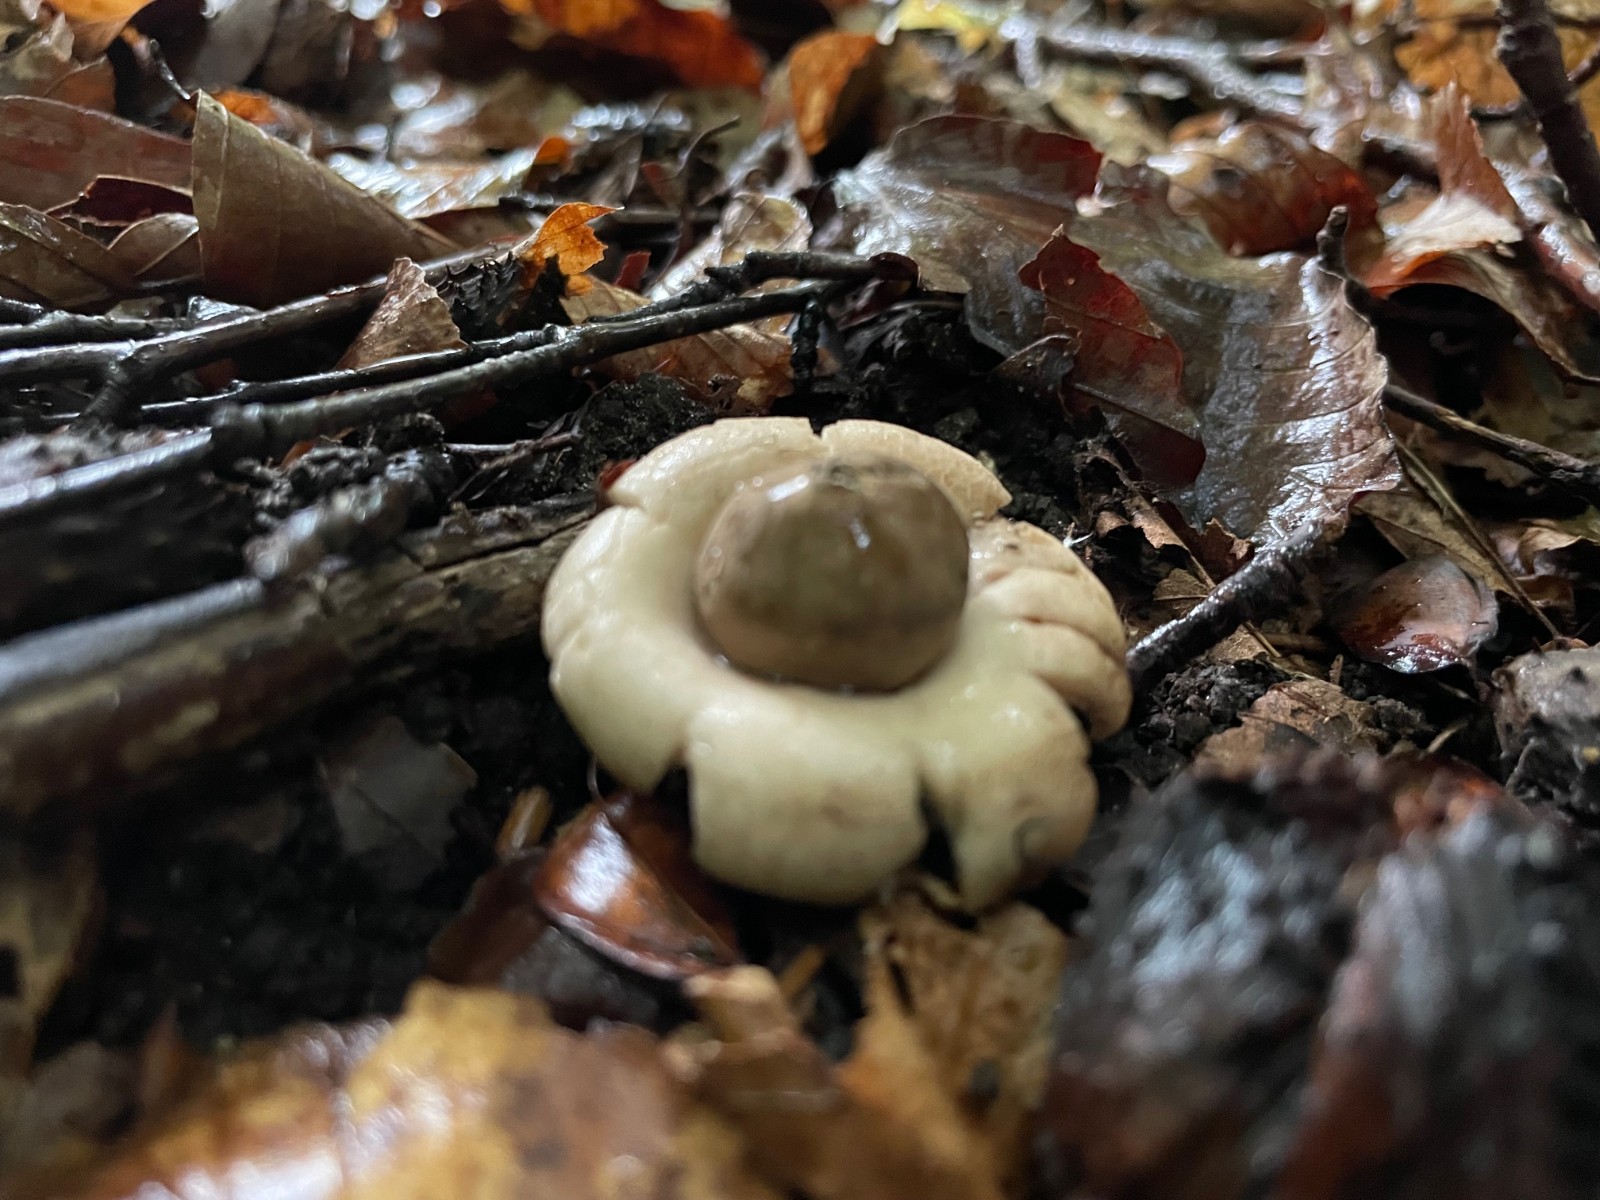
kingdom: Fungi
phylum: Basidiomycota
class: Agaricomycetes
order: Geastrales
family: Geastraceae
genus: Geastrum
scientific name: Geastrum fimbriatum
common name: frynset stjernebold
